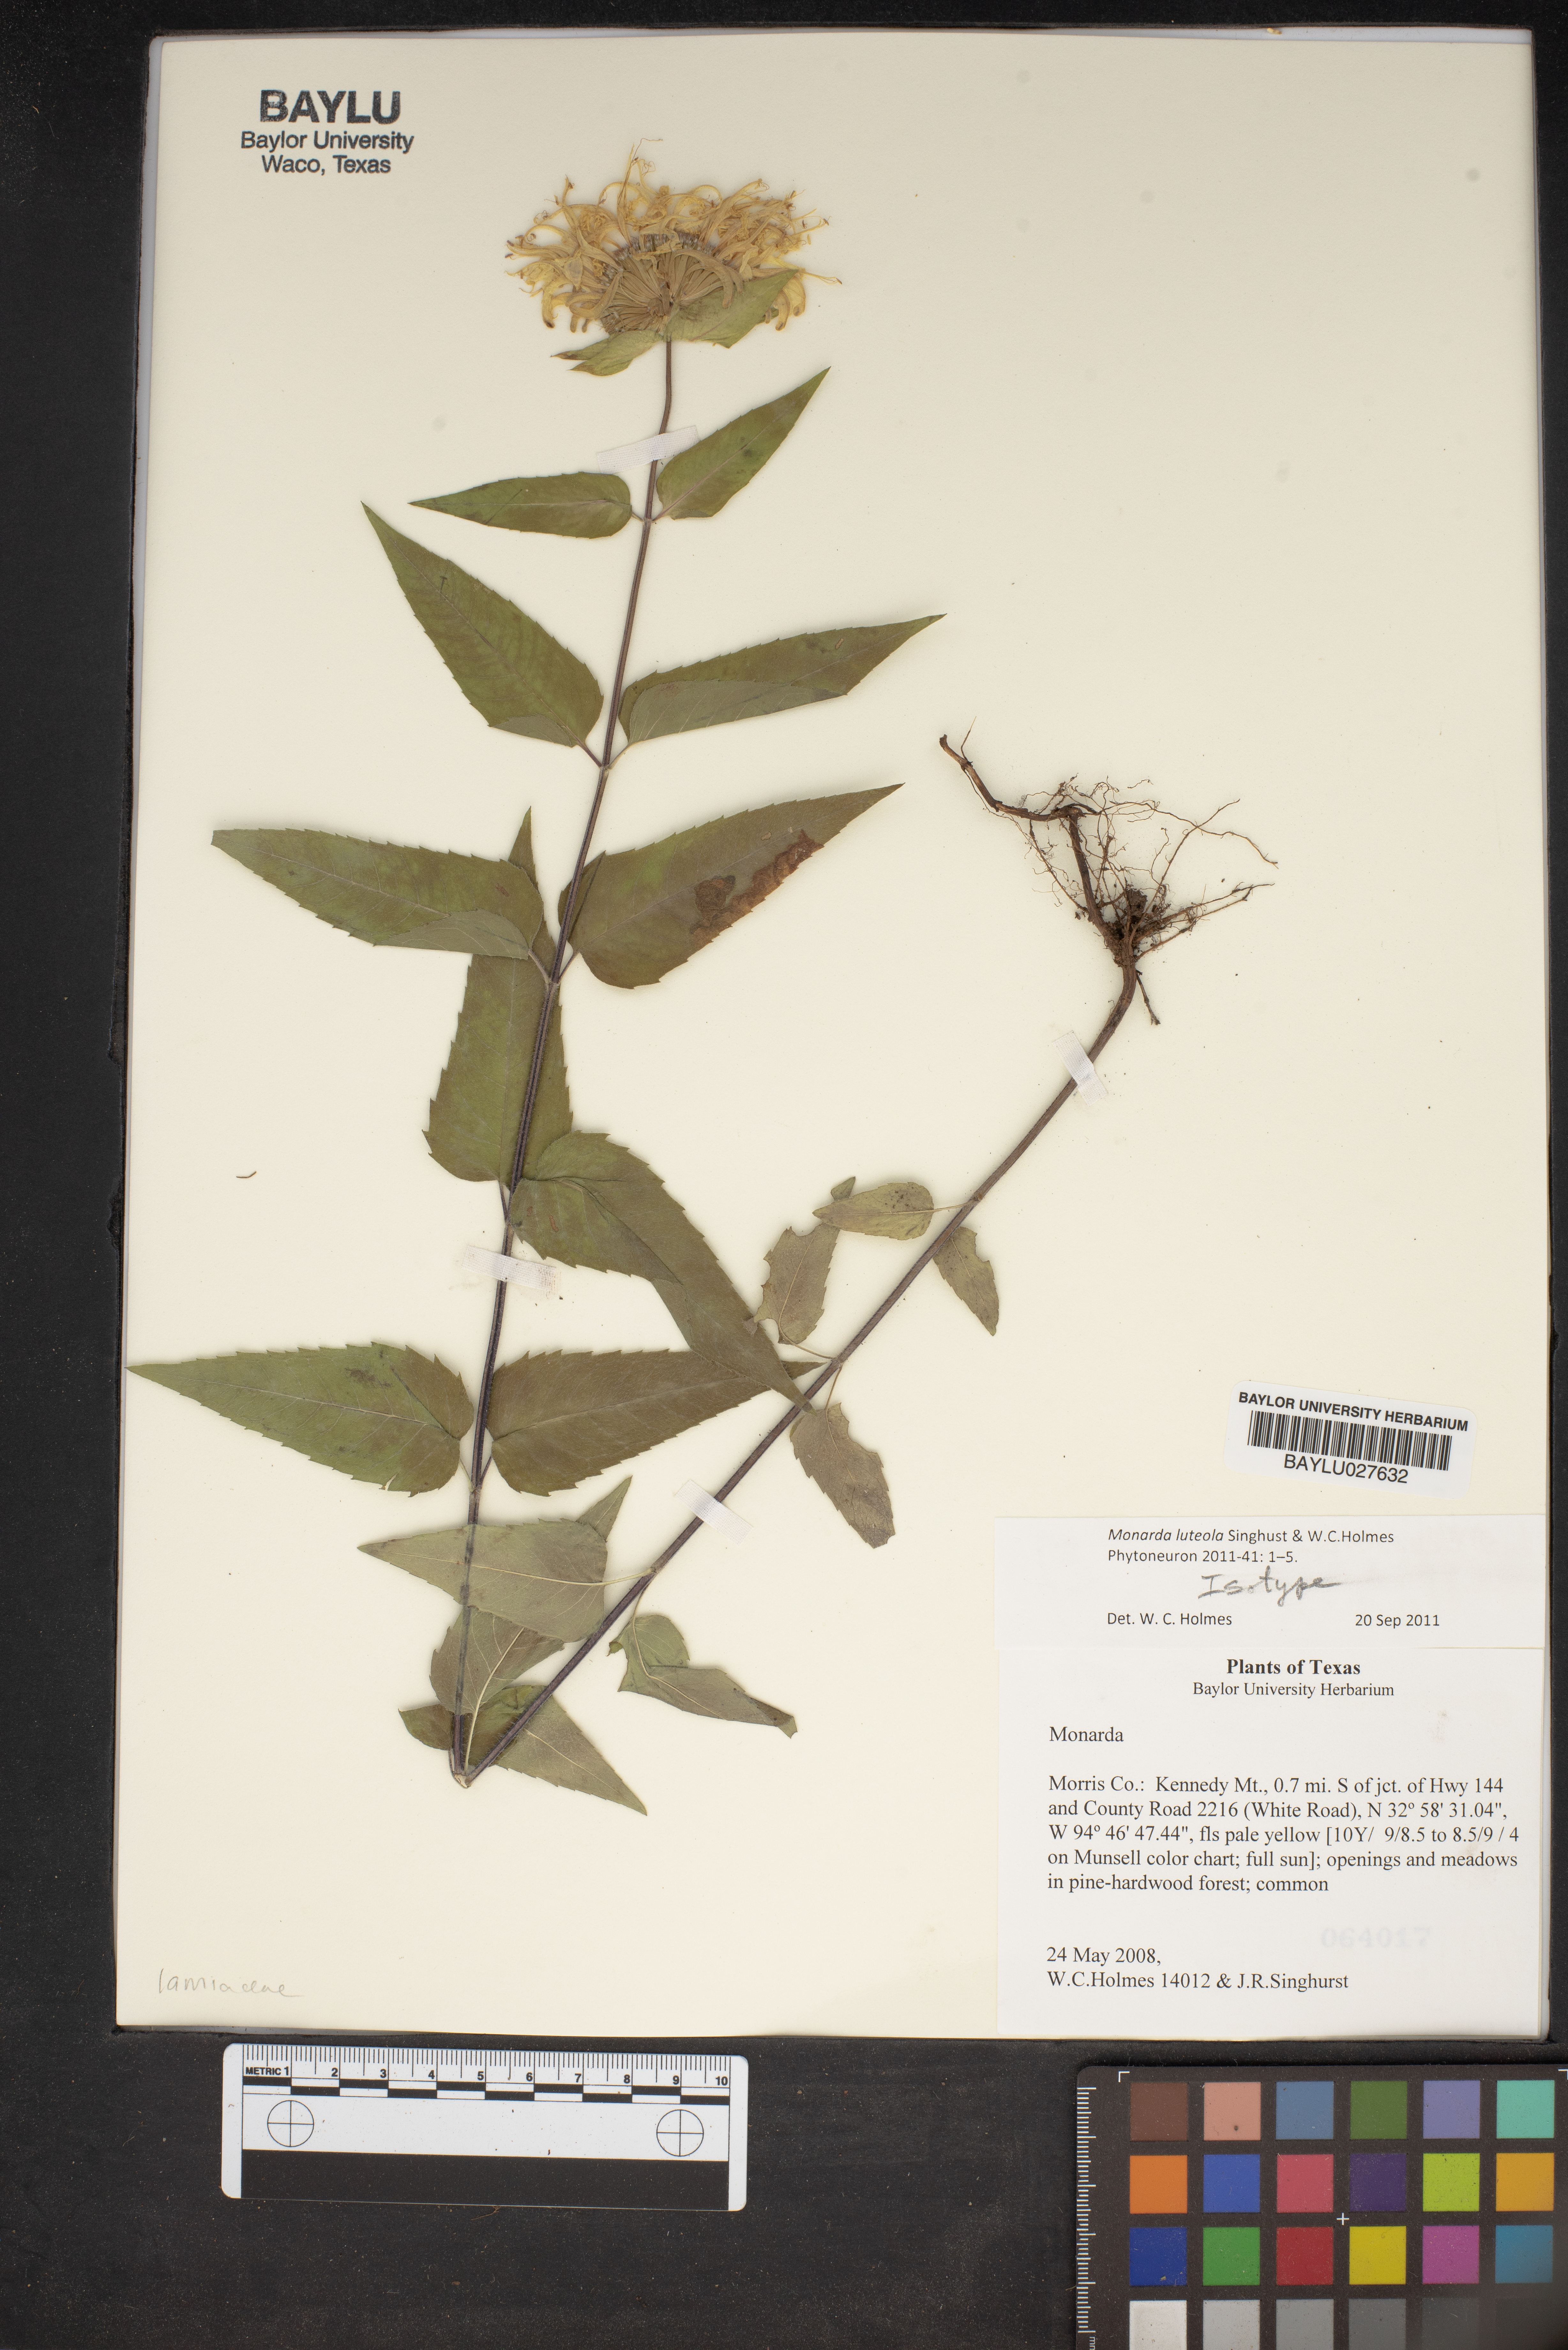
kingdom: Plantae
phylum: Tracheophyta
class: Magnoliopsida
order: Lamiales
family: Lamiaceae
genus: Monarda
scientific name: Monarda luteola
